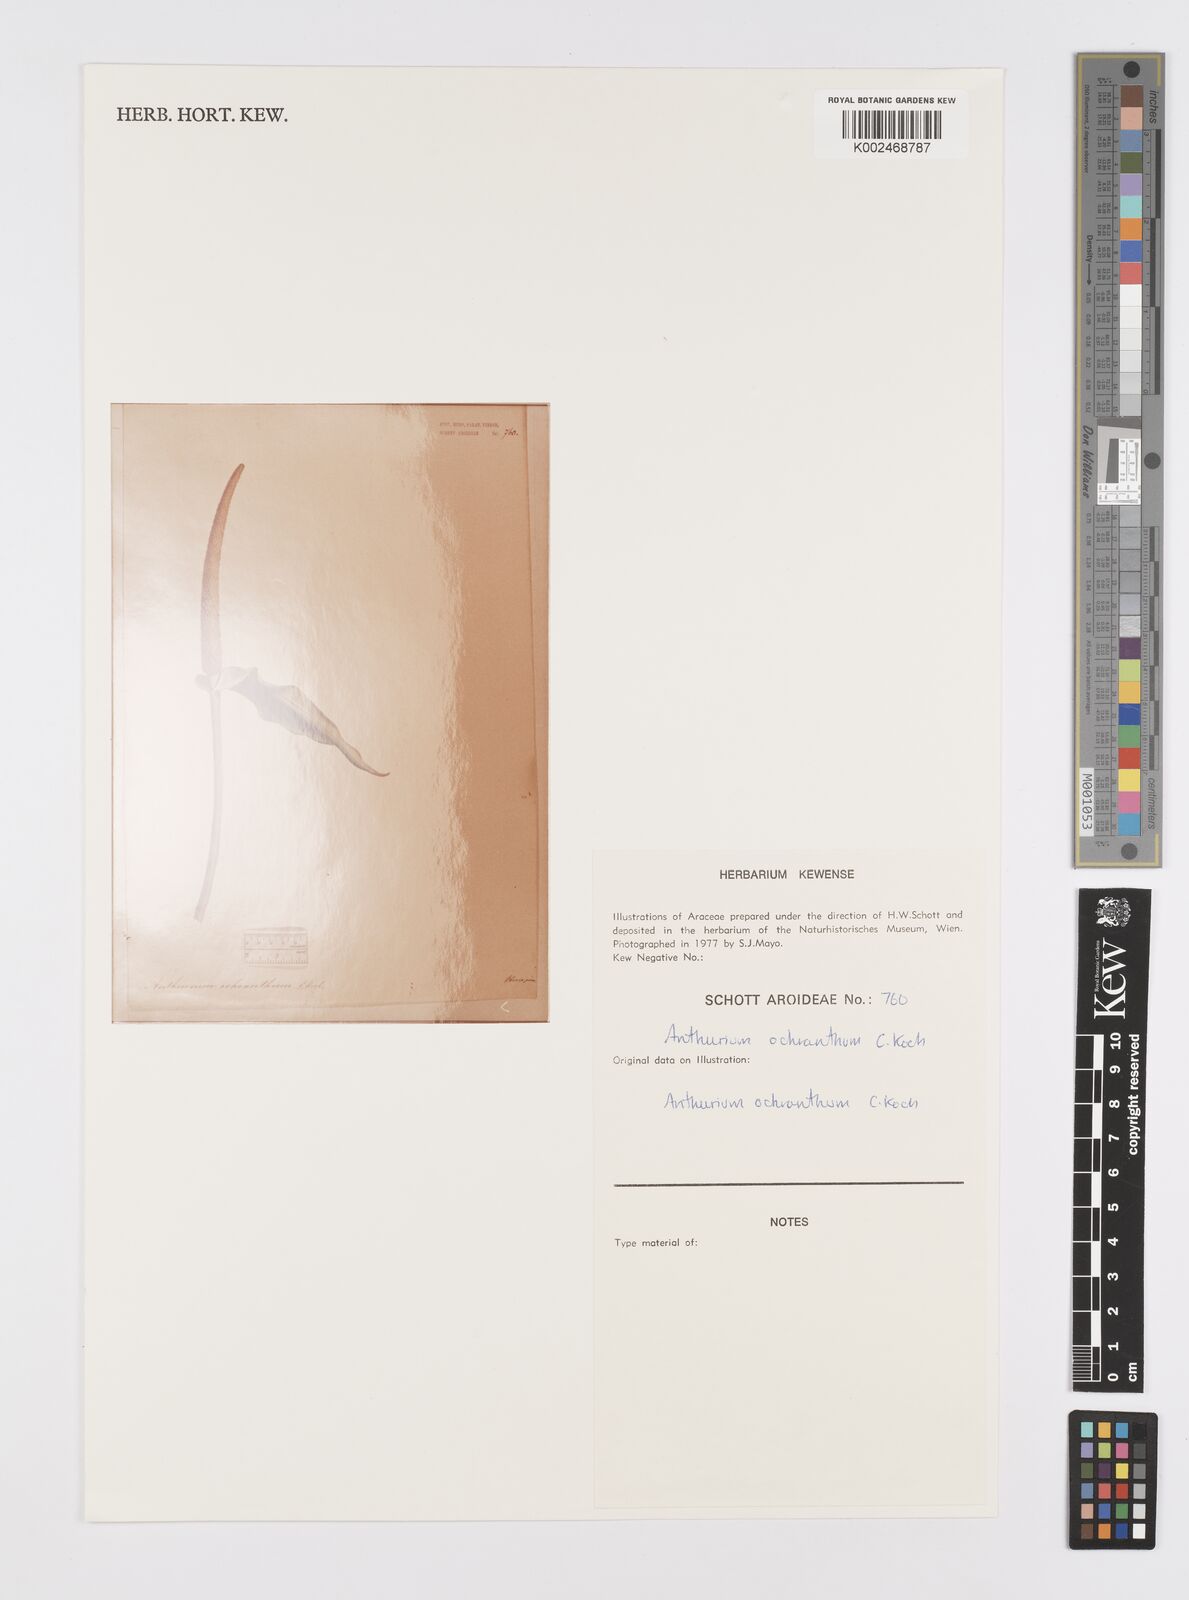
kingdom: Plantae
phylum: Tracheophyta
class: Liliopsida
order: Alismatales
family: Araceae
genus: Anthurium
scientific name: Anthurium ochranthum
